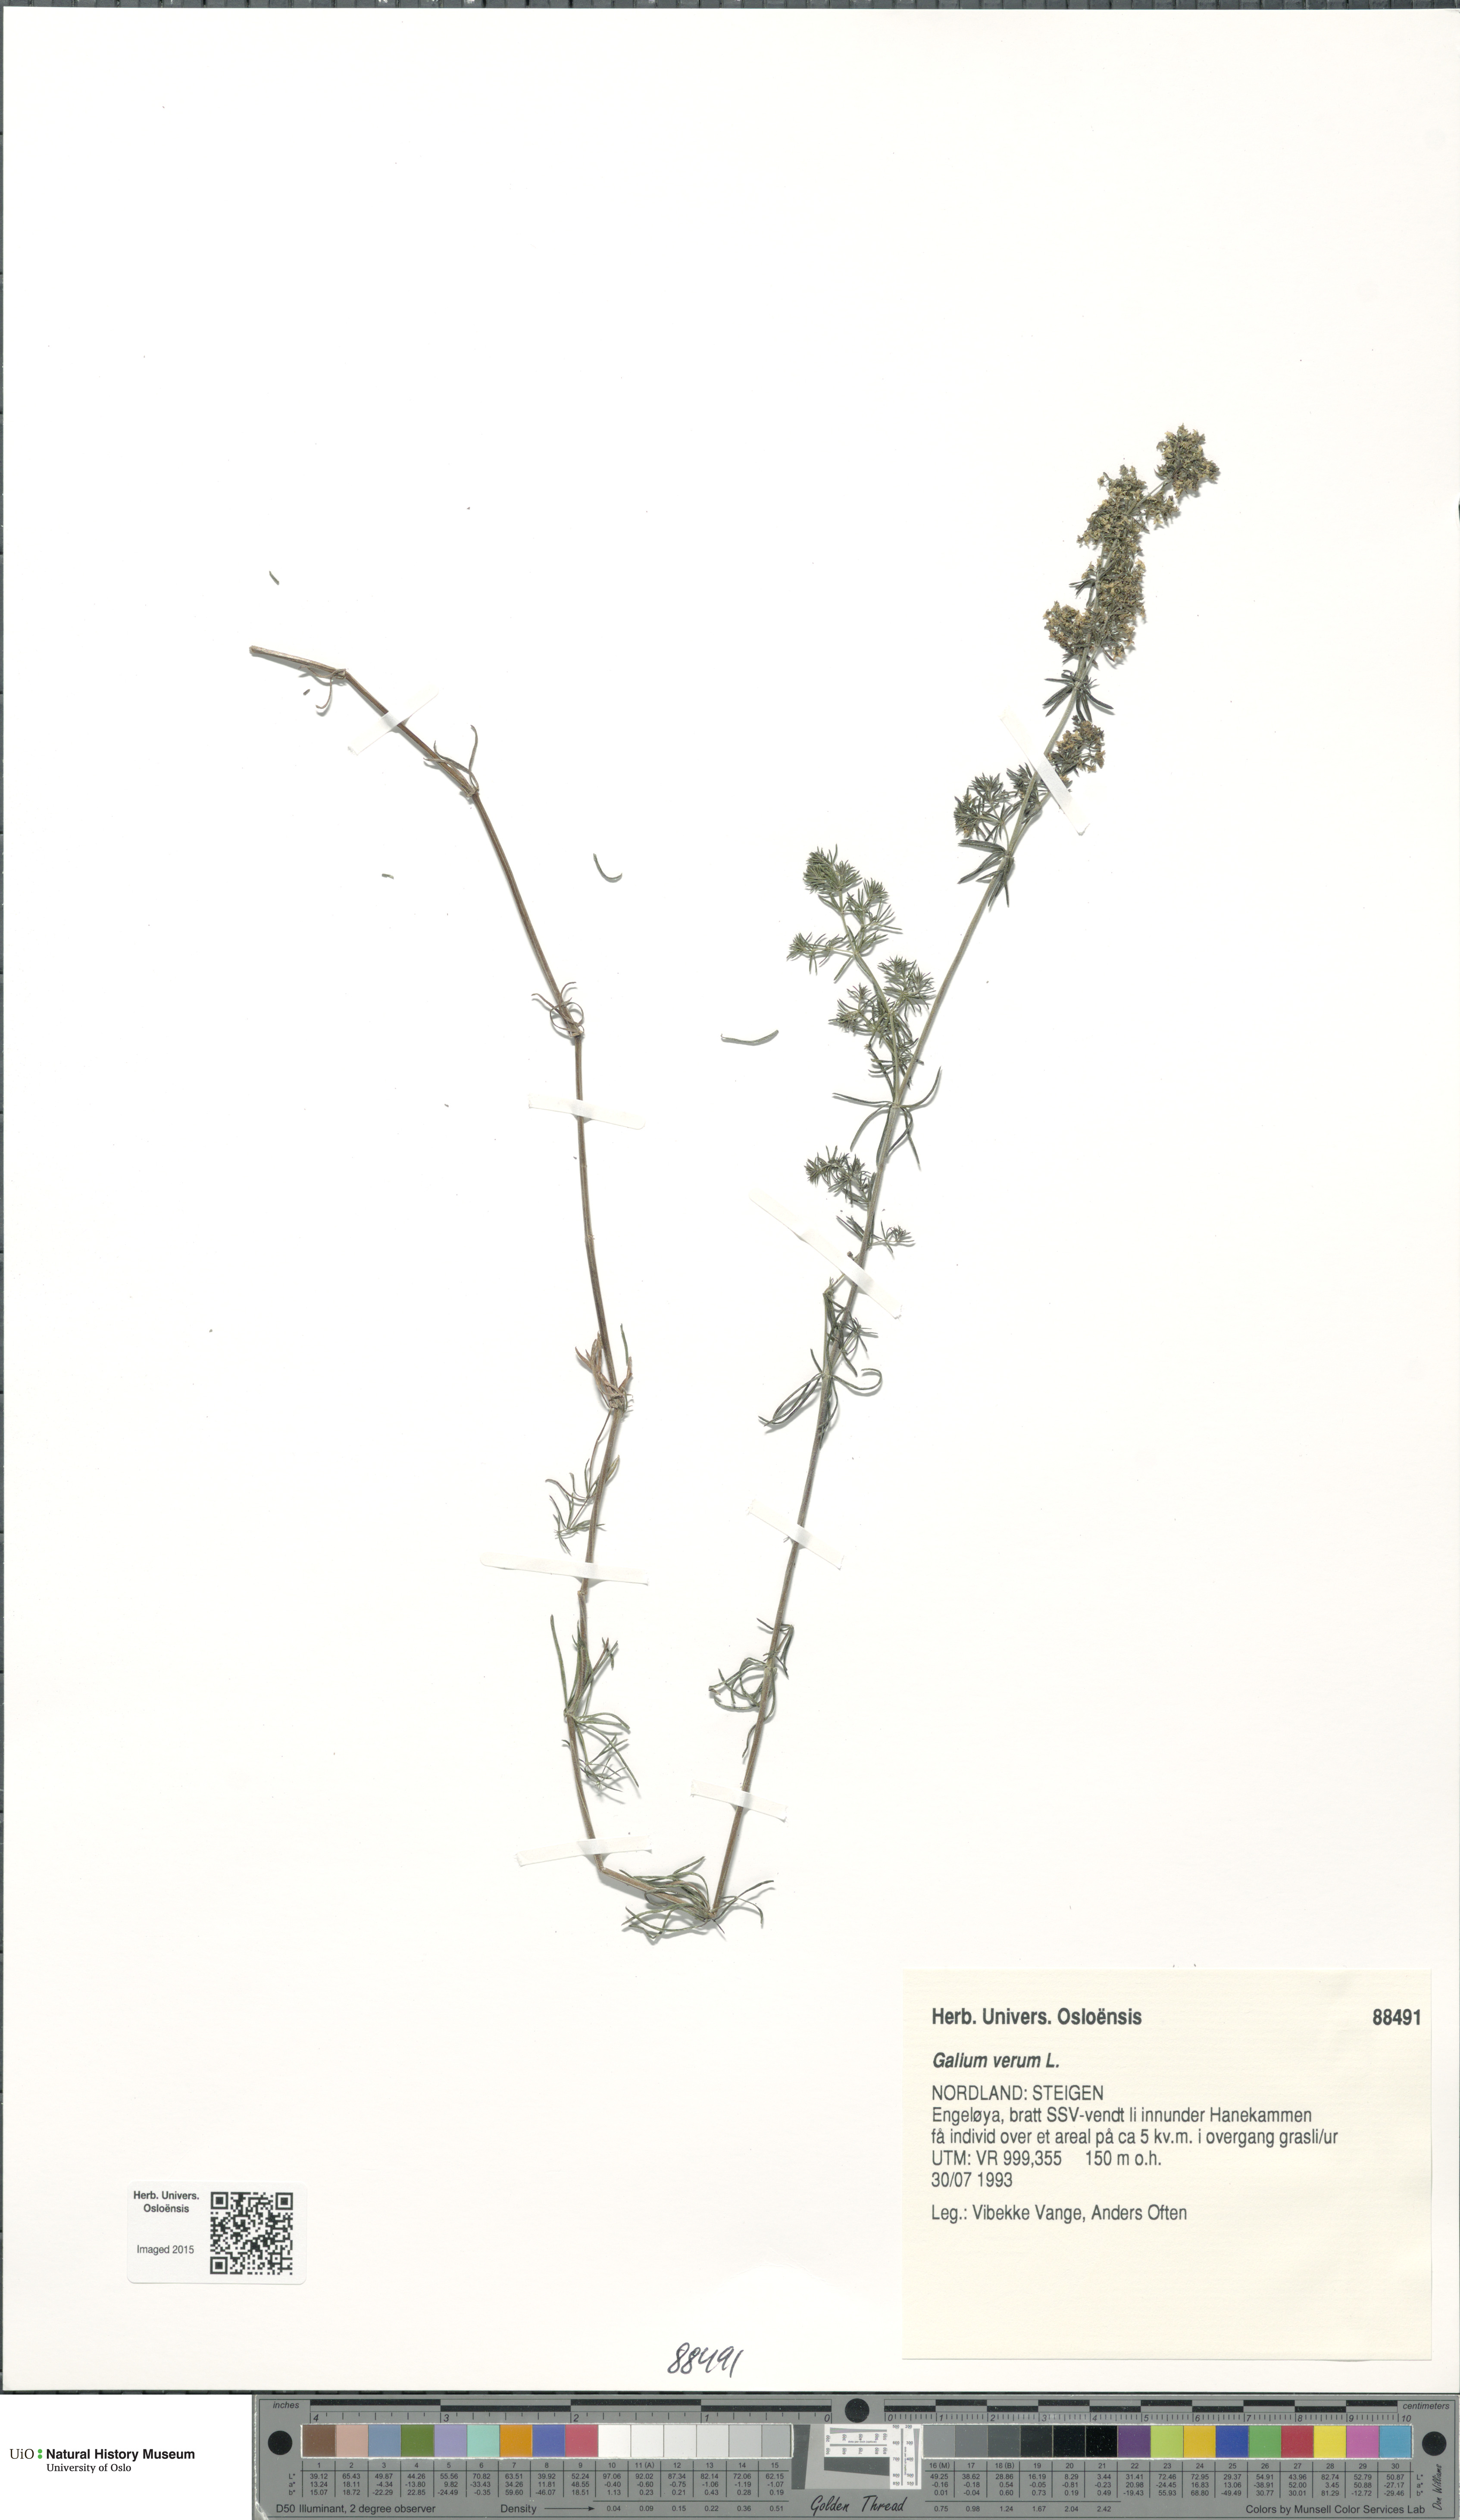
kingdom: Plantae
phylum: Tracheophyta
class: Magnoliopsida
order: Gentianales
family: Rubiaceae
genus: Galium
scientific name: Galium verum
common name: Lady's bedstraw
